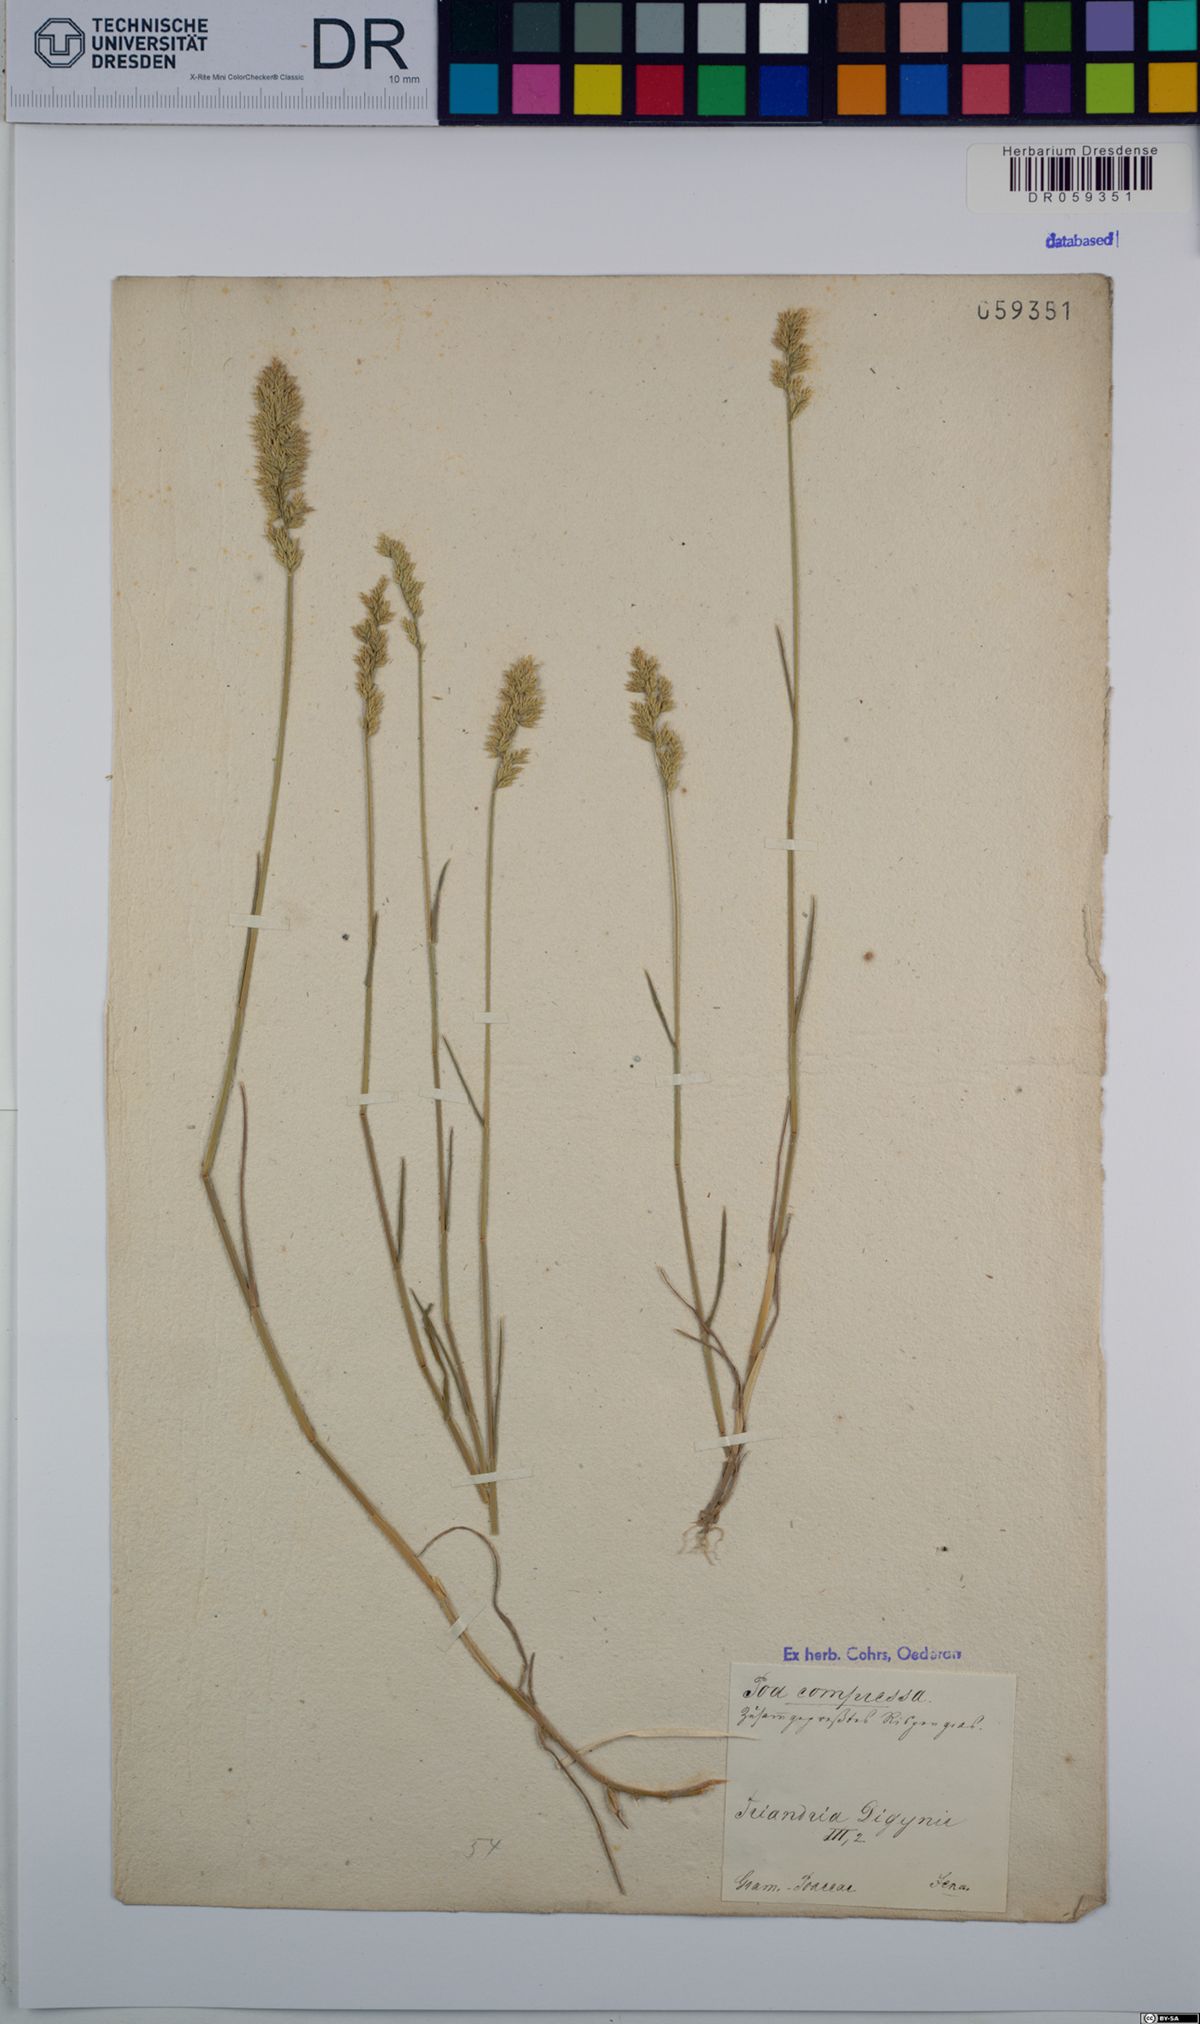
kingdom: Plantae
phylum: Tracheophyta
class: Liliopsida
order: Poales
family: Poaceae
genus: Poa
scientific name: Poa compressa
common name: Canada bluegrass
